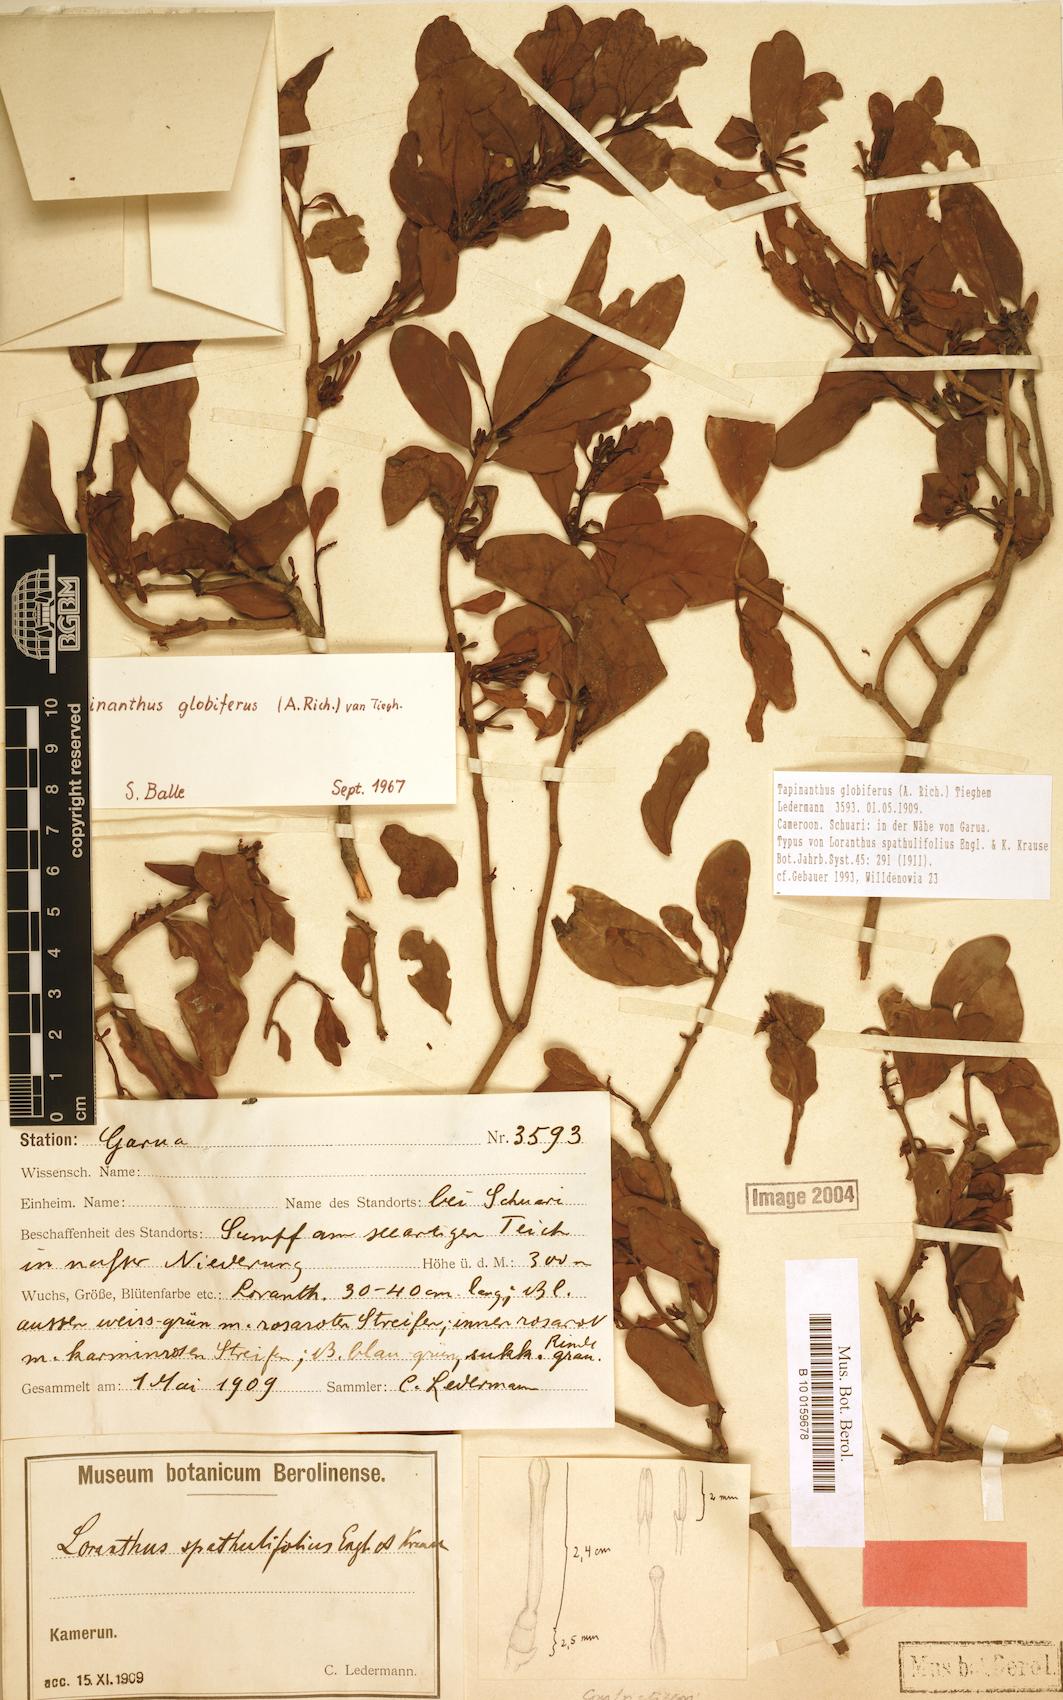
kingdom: Plantae
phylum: Tracheophyta
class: Magnoliopsida
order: Santalales
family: Loranthaceae
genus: Tapinanthus
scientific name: Tapinanthus globiferus
